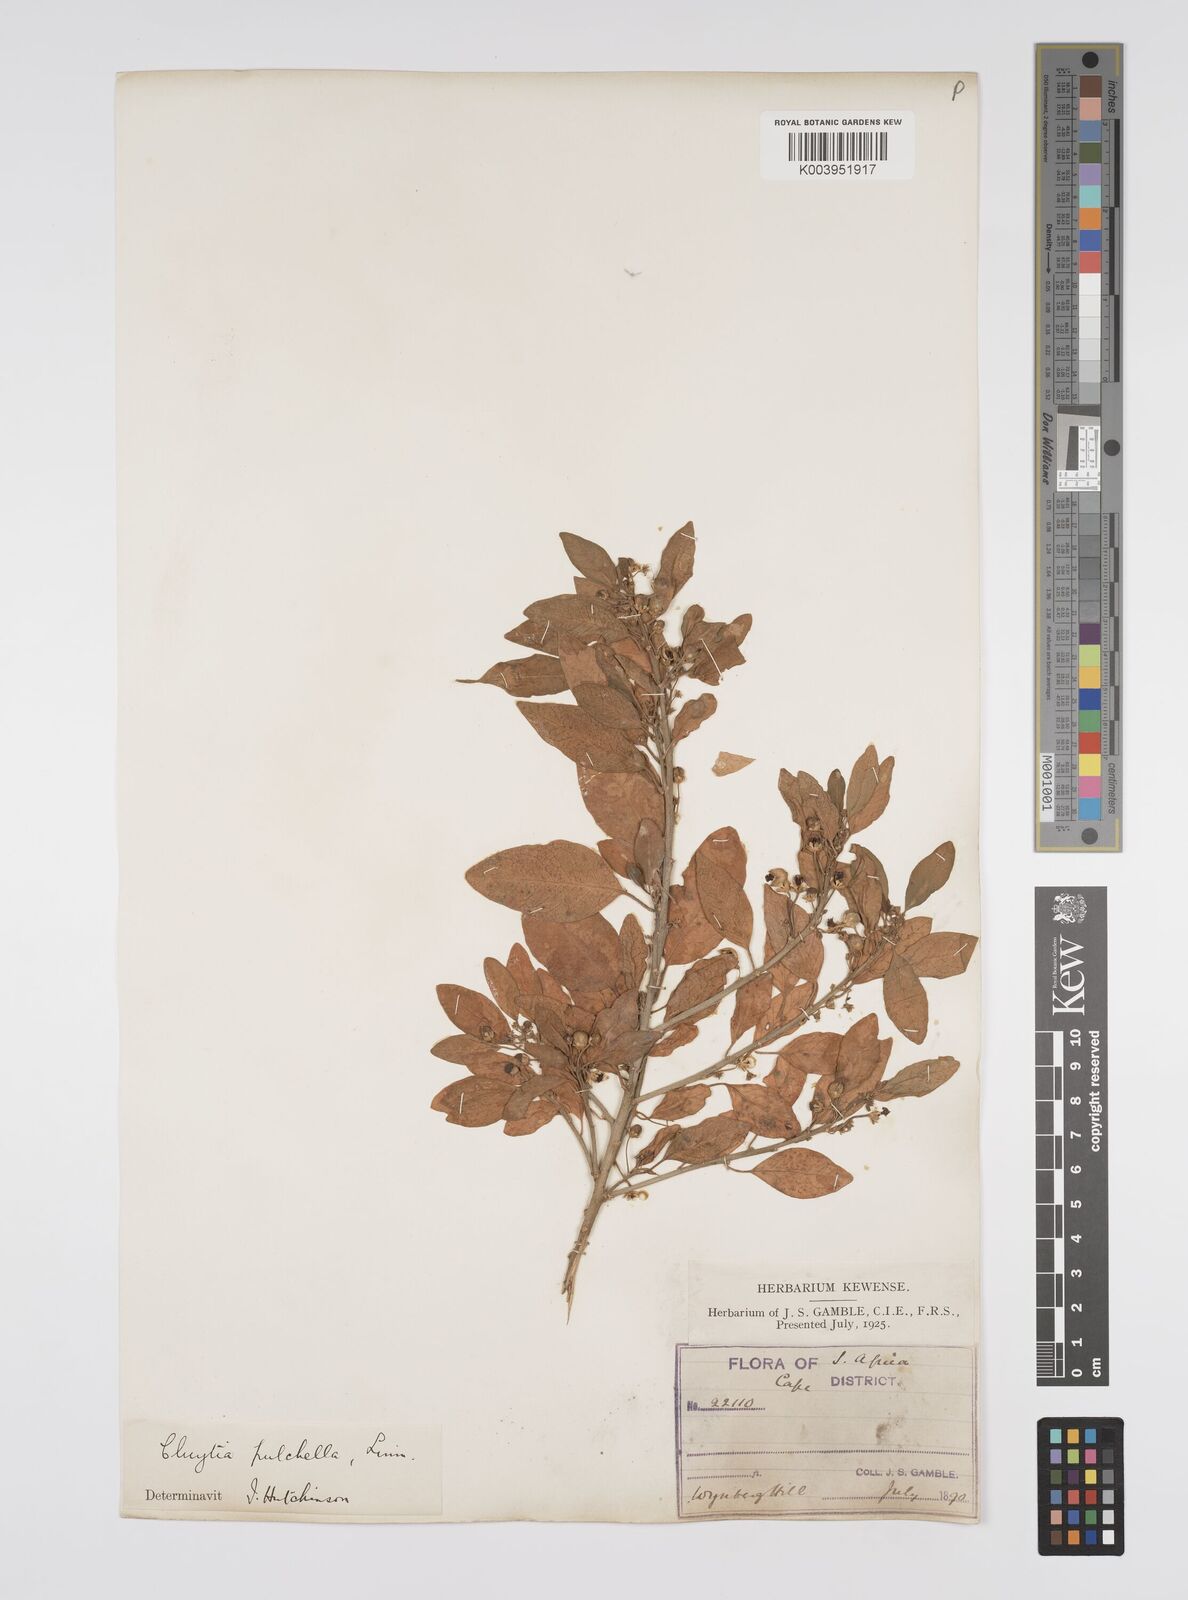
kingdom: Plantae
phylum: Tracheophyta
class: Magnoliopsida
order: Malpighiales
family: Peraceae
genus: Clutia
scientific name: Clutia pulchella
